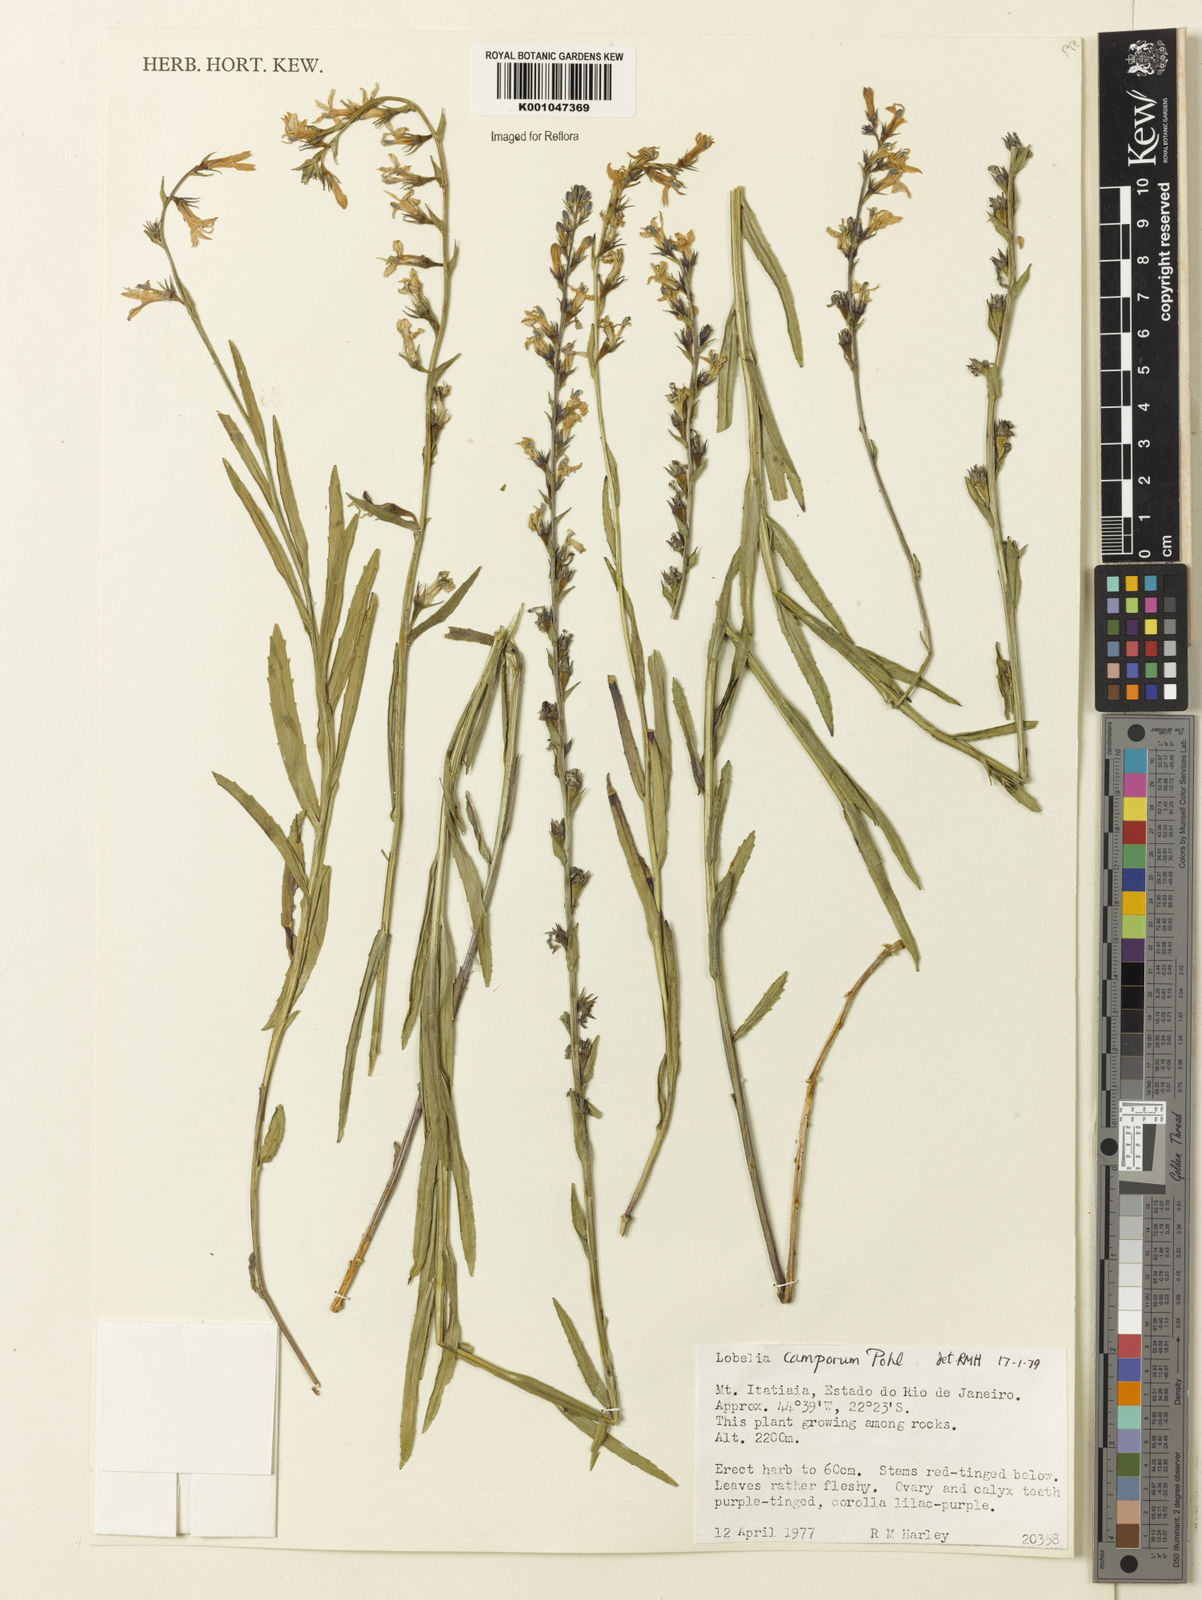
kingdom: Plantae
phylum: Tracheophyta
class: Magnoliopsida
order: Asterales
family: Campanulaceae
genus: Lobelia
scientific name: Lobelia camporum
